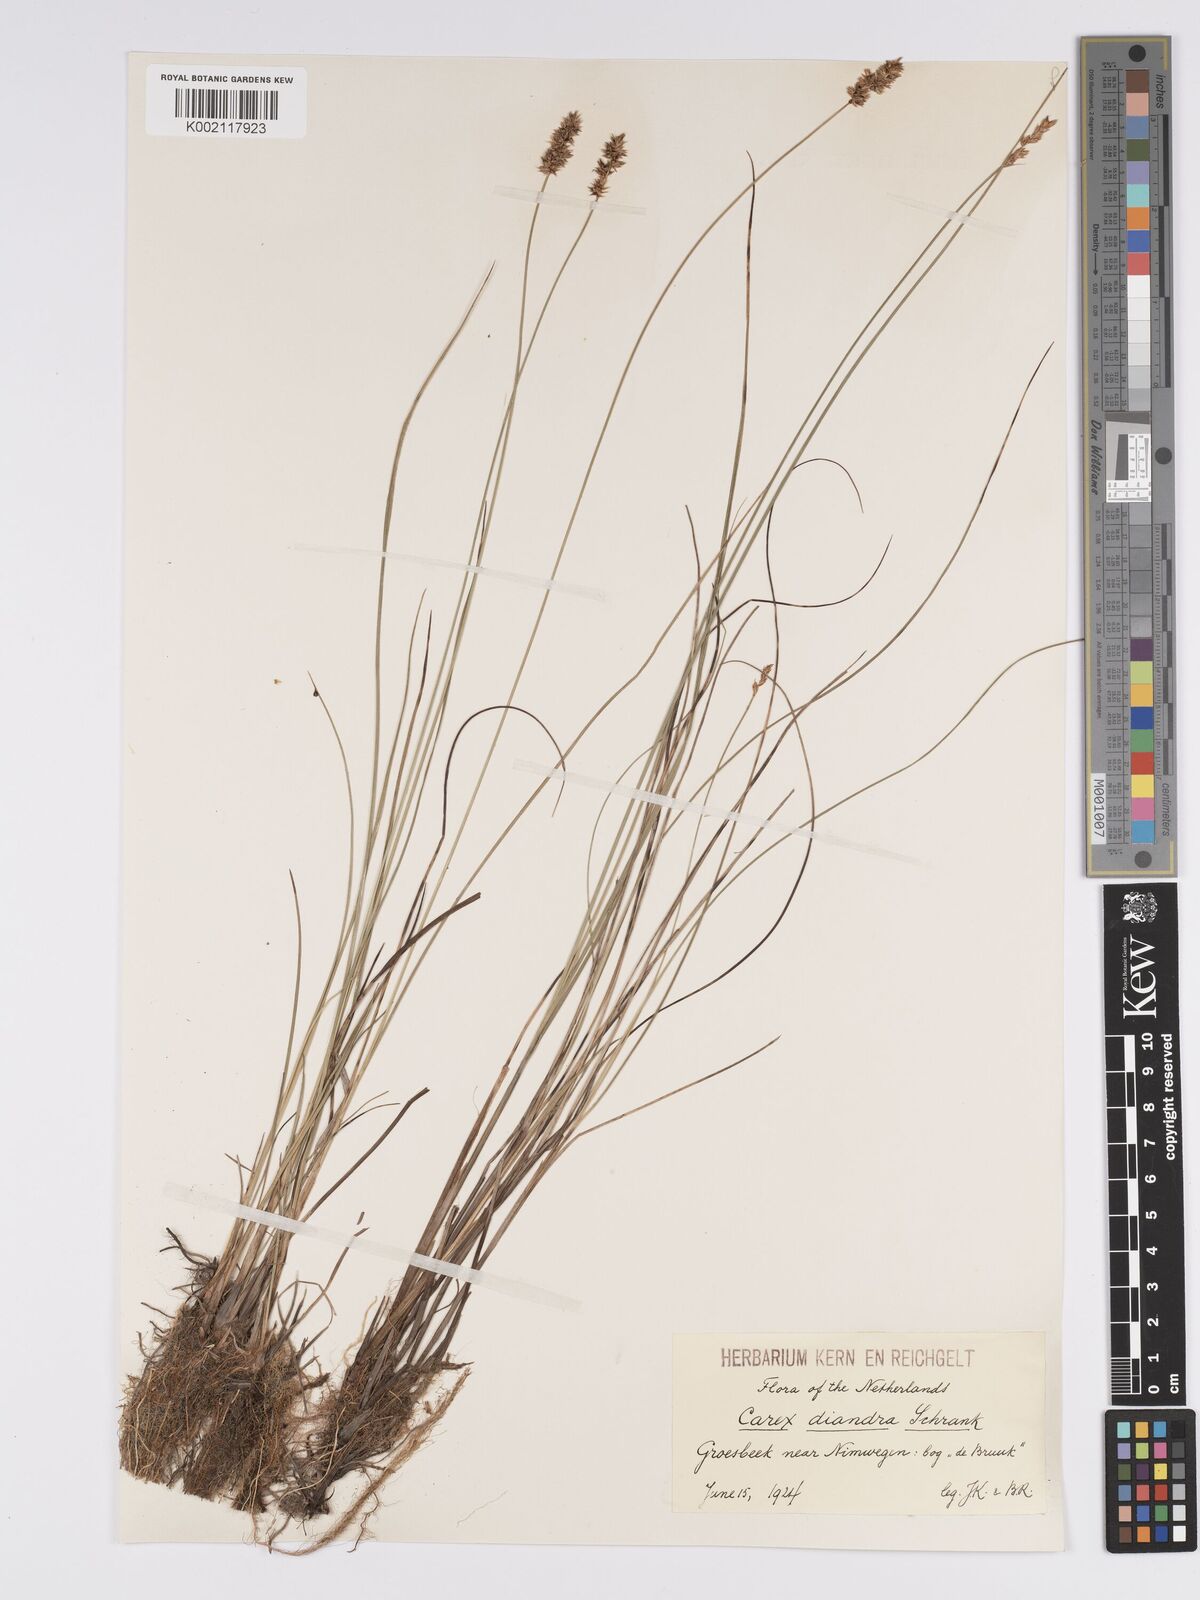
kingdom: Plantae
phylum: Tracheophyta
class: Liliopsida
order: Poales
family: Cyperaceae
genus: Carex
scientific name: Carex diandra
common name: Lesser tussock-sedge
